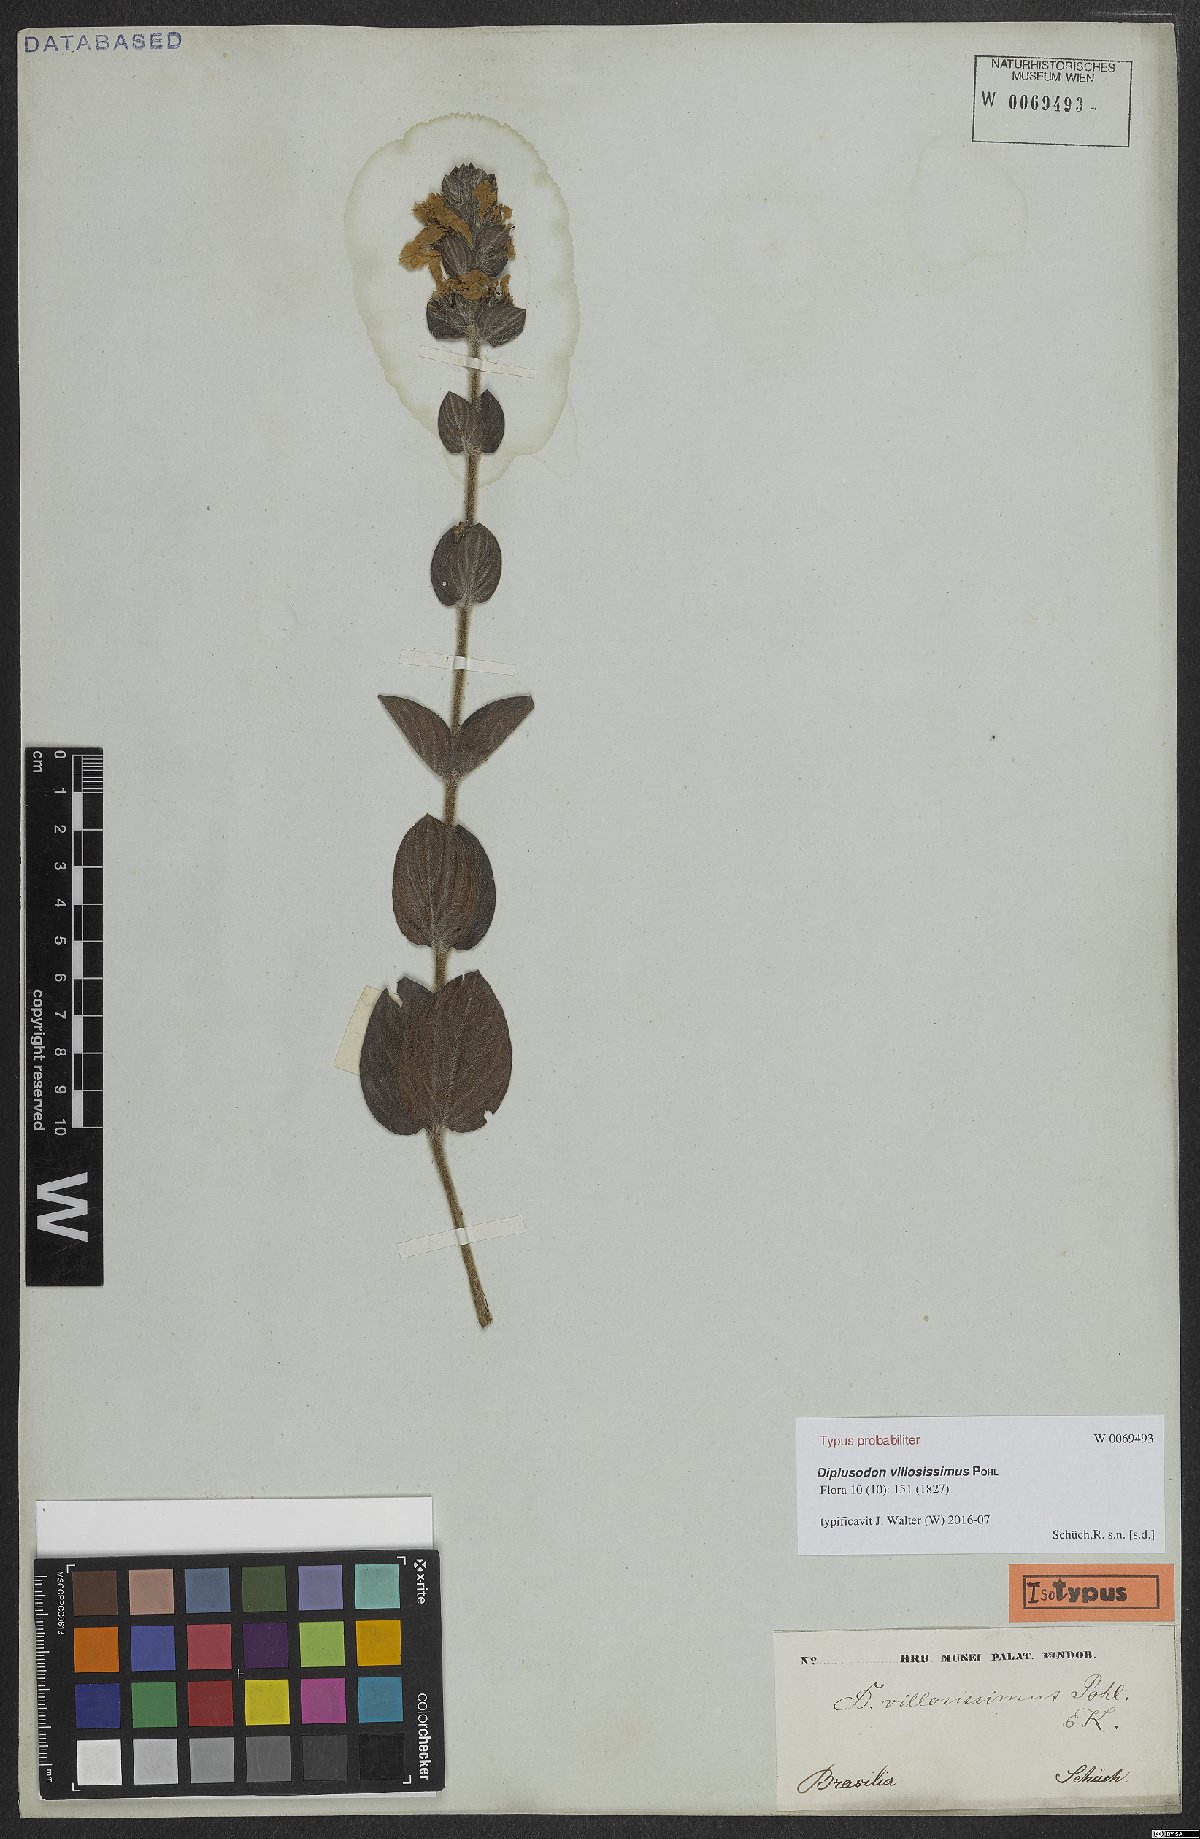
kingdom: Plantae
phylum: Tracheophyta
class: Magnoliopsida
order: Myrtales
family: Lythraceae
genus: Diplusodon
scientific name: Diplusodon villosissimus
